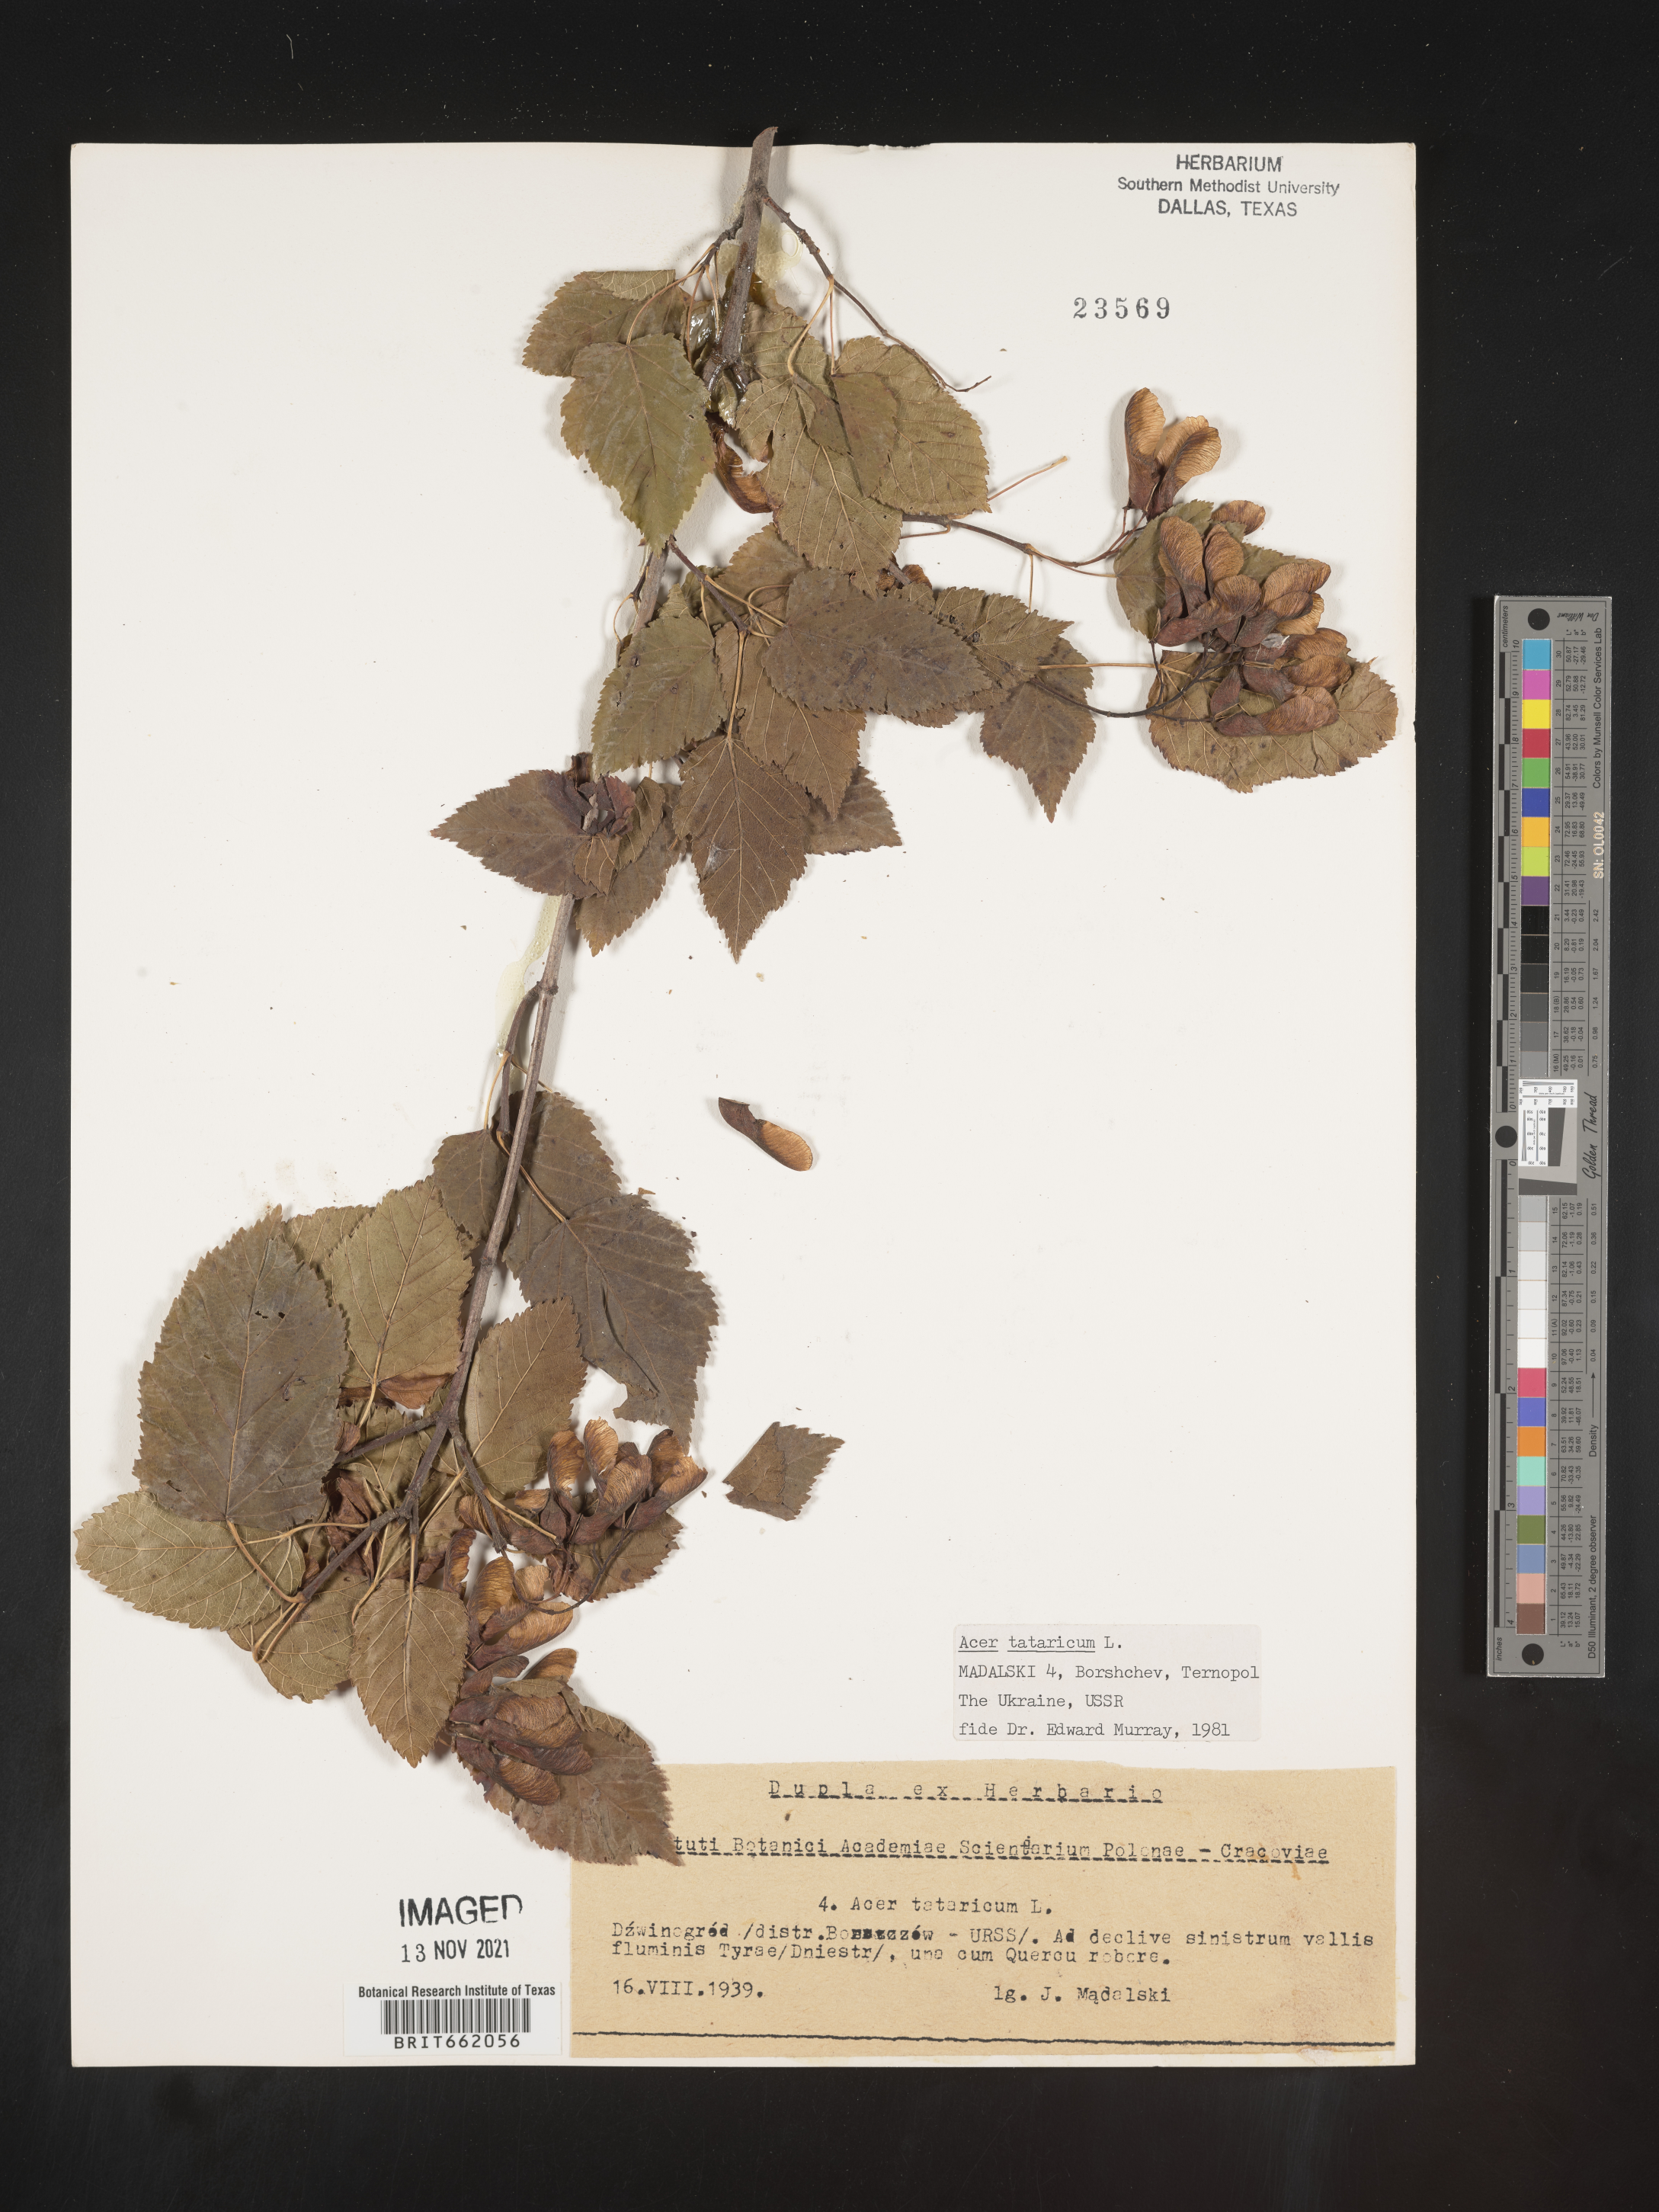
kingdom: Plantae
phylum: Tracheophyta
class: Magnoliopsida
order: Sapindales
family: Sapindaceae
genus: Acer
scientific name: Acer
